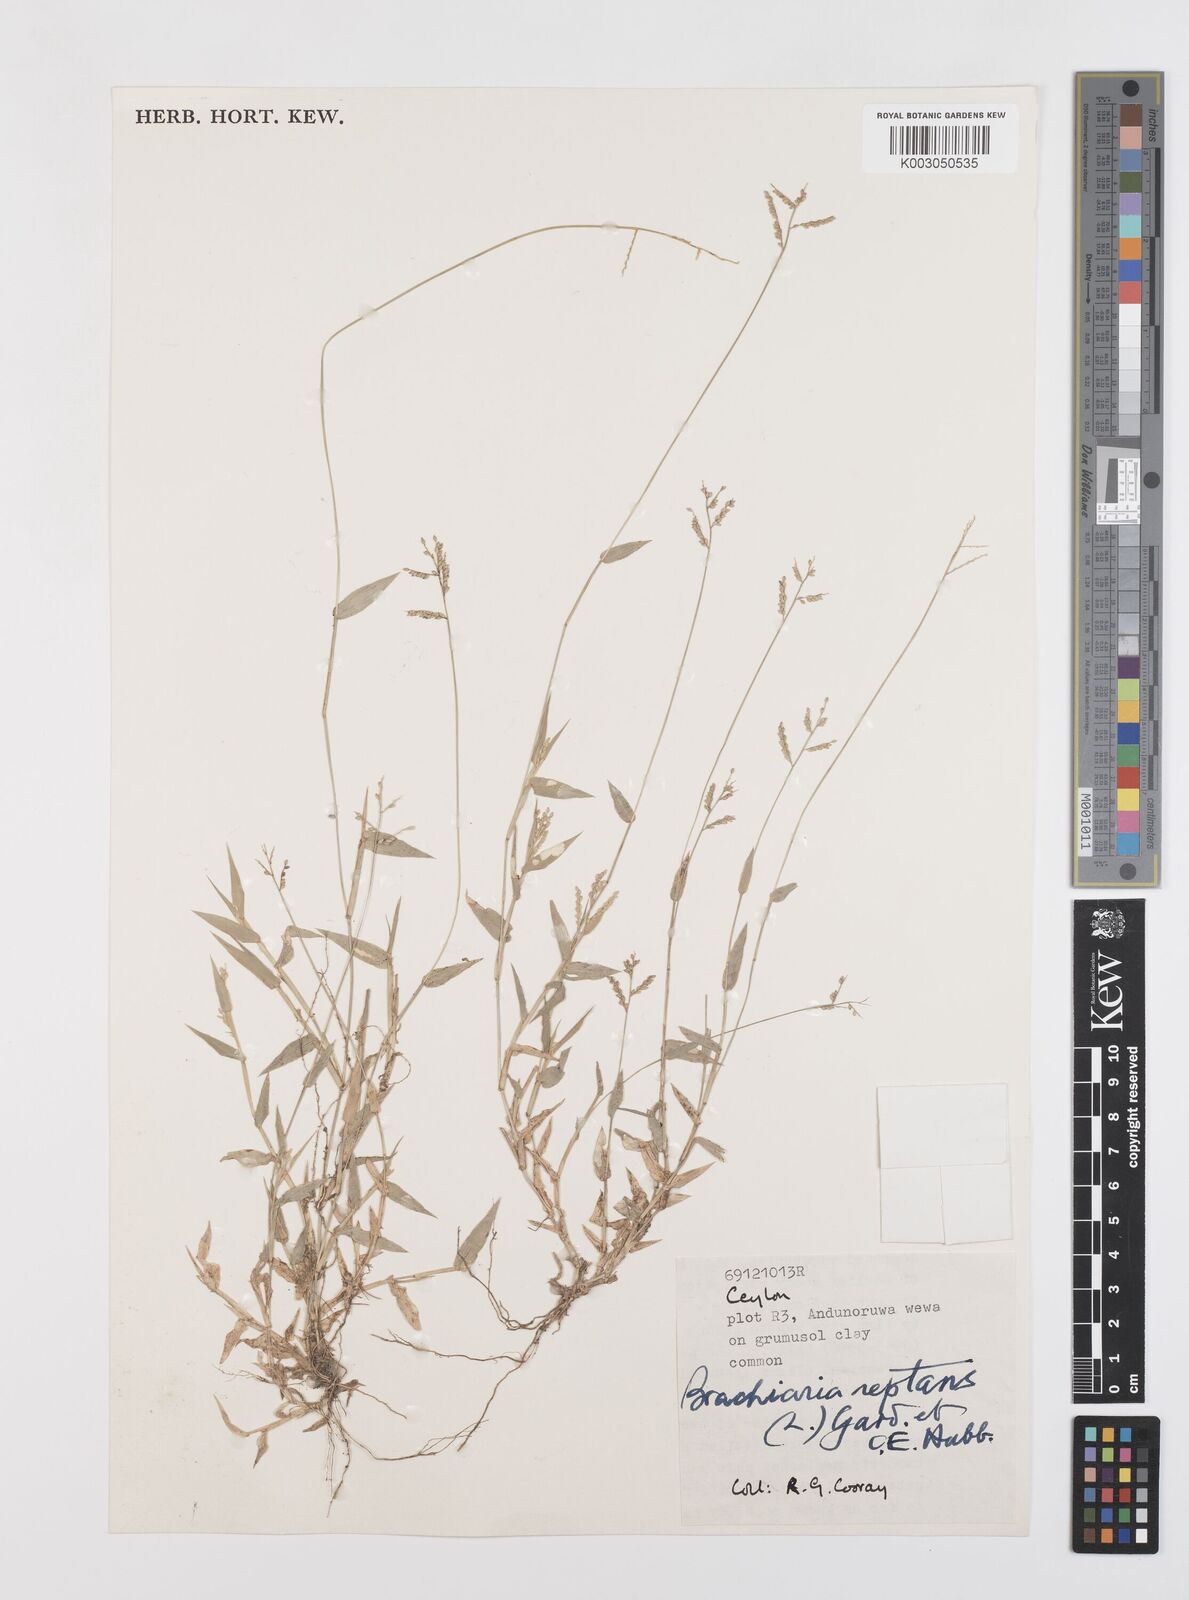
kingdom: Plantae
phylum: Tracheophyta
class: Liliopsida
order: Poales
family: Poaceae
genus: Urochloa
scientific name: Urochloa reptans
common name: Sprawling signalgrass
